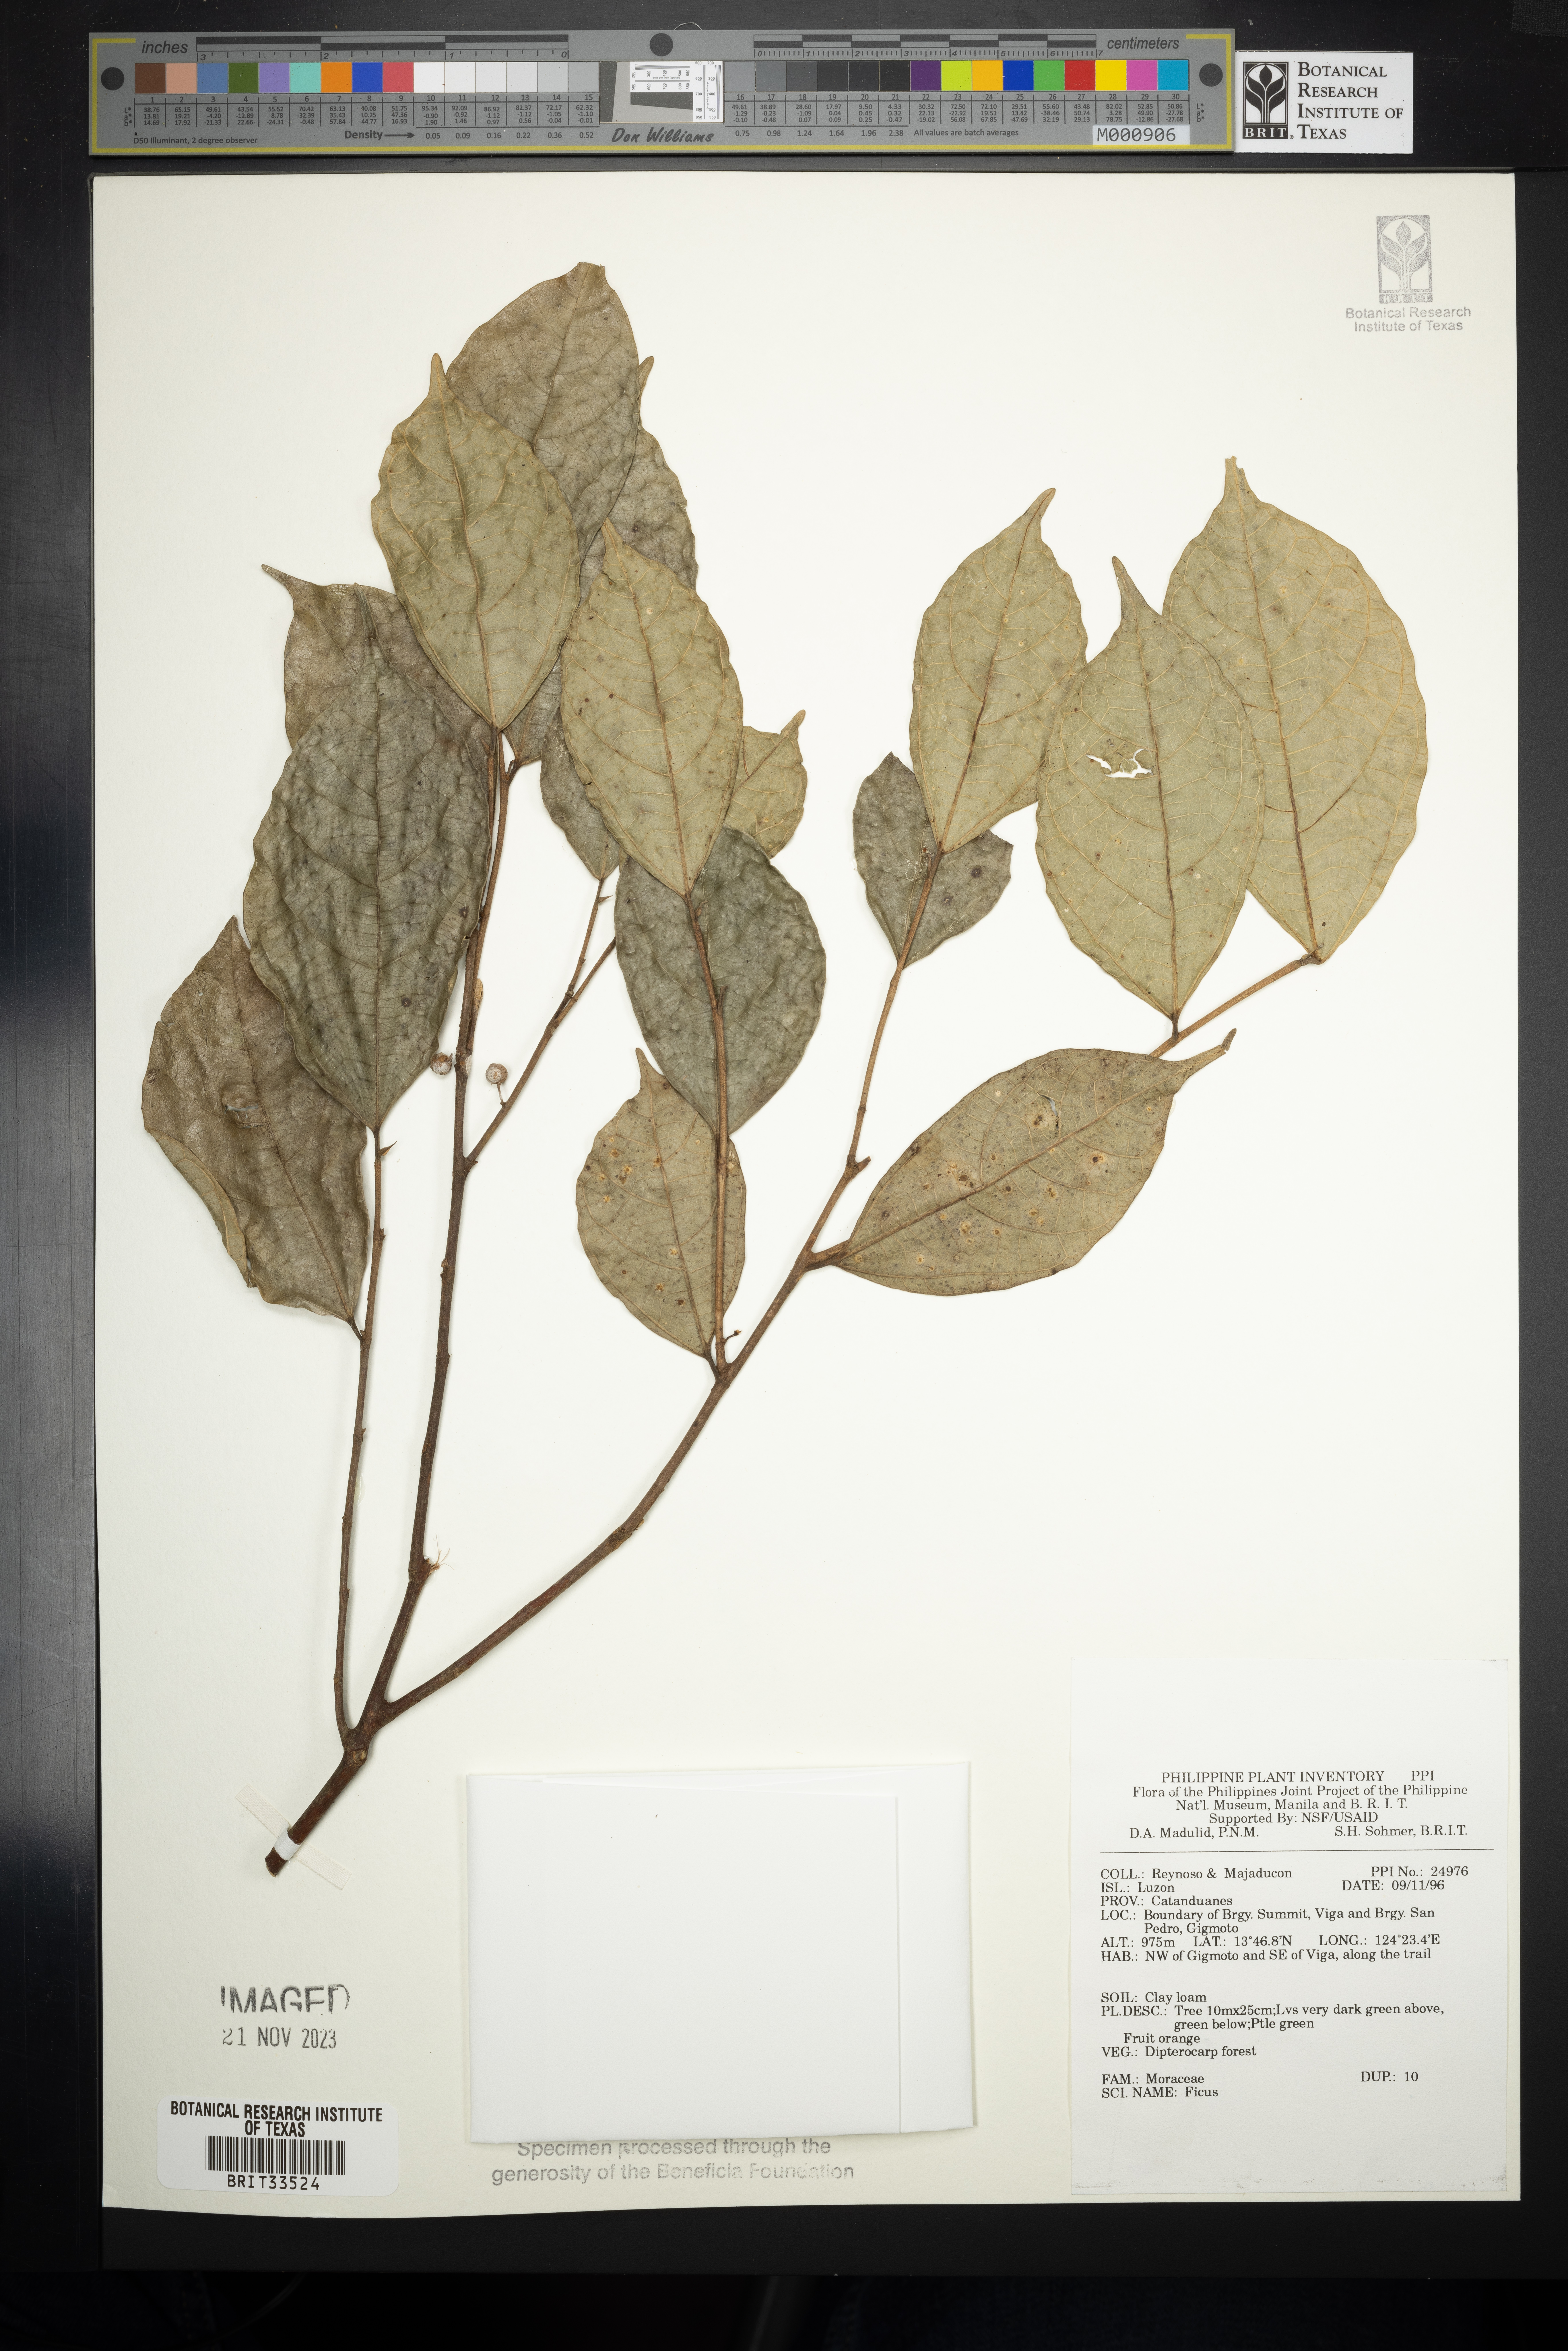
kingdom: Plantae
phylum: Tracheophyta
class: Magnoliopsida
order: Rosales
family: Moraceae
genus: Ficus
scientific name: Ficus
